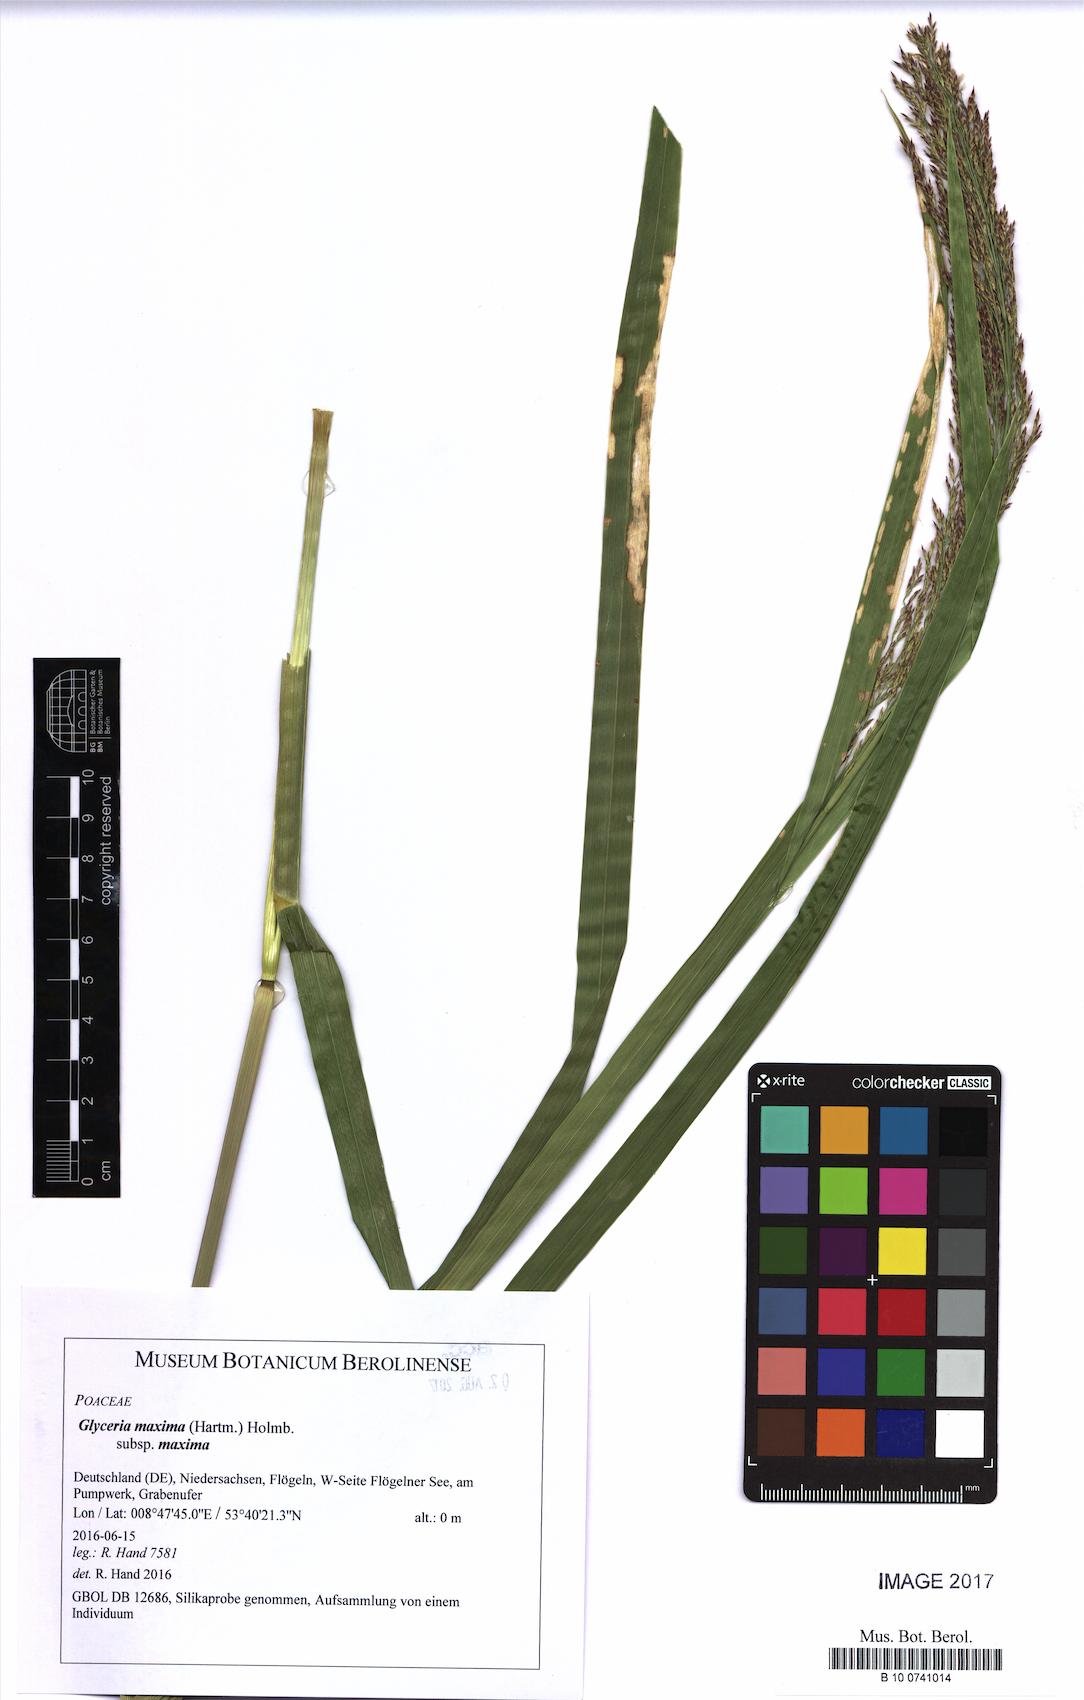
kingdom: Plantae
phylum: Tracheophyta
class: Liliopsida
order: Poales
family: Poaceae
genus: Glyceria
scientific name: Glyceria maxima
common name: Reed mannagrass
